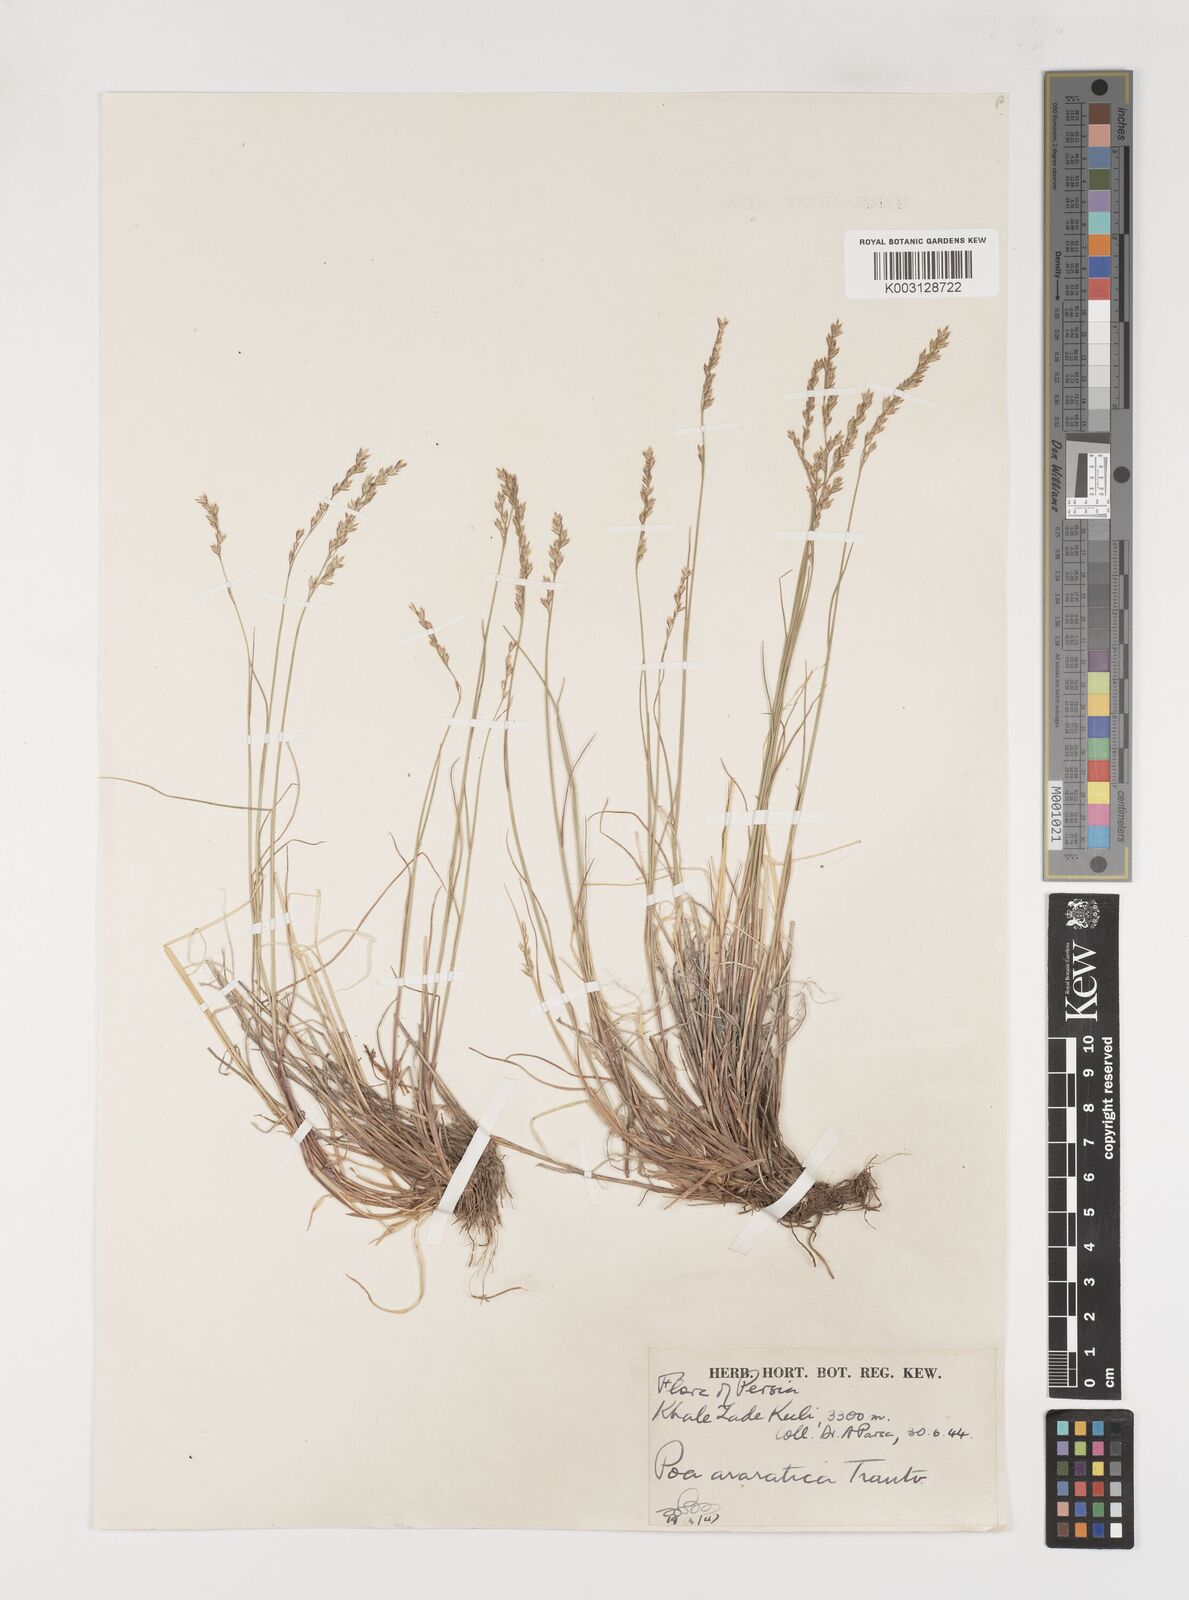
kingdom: Plantae
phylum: Tracheophyta
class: Liliopsida
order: Poales
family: Poaceae
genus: Poa
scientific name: Poa araratica
